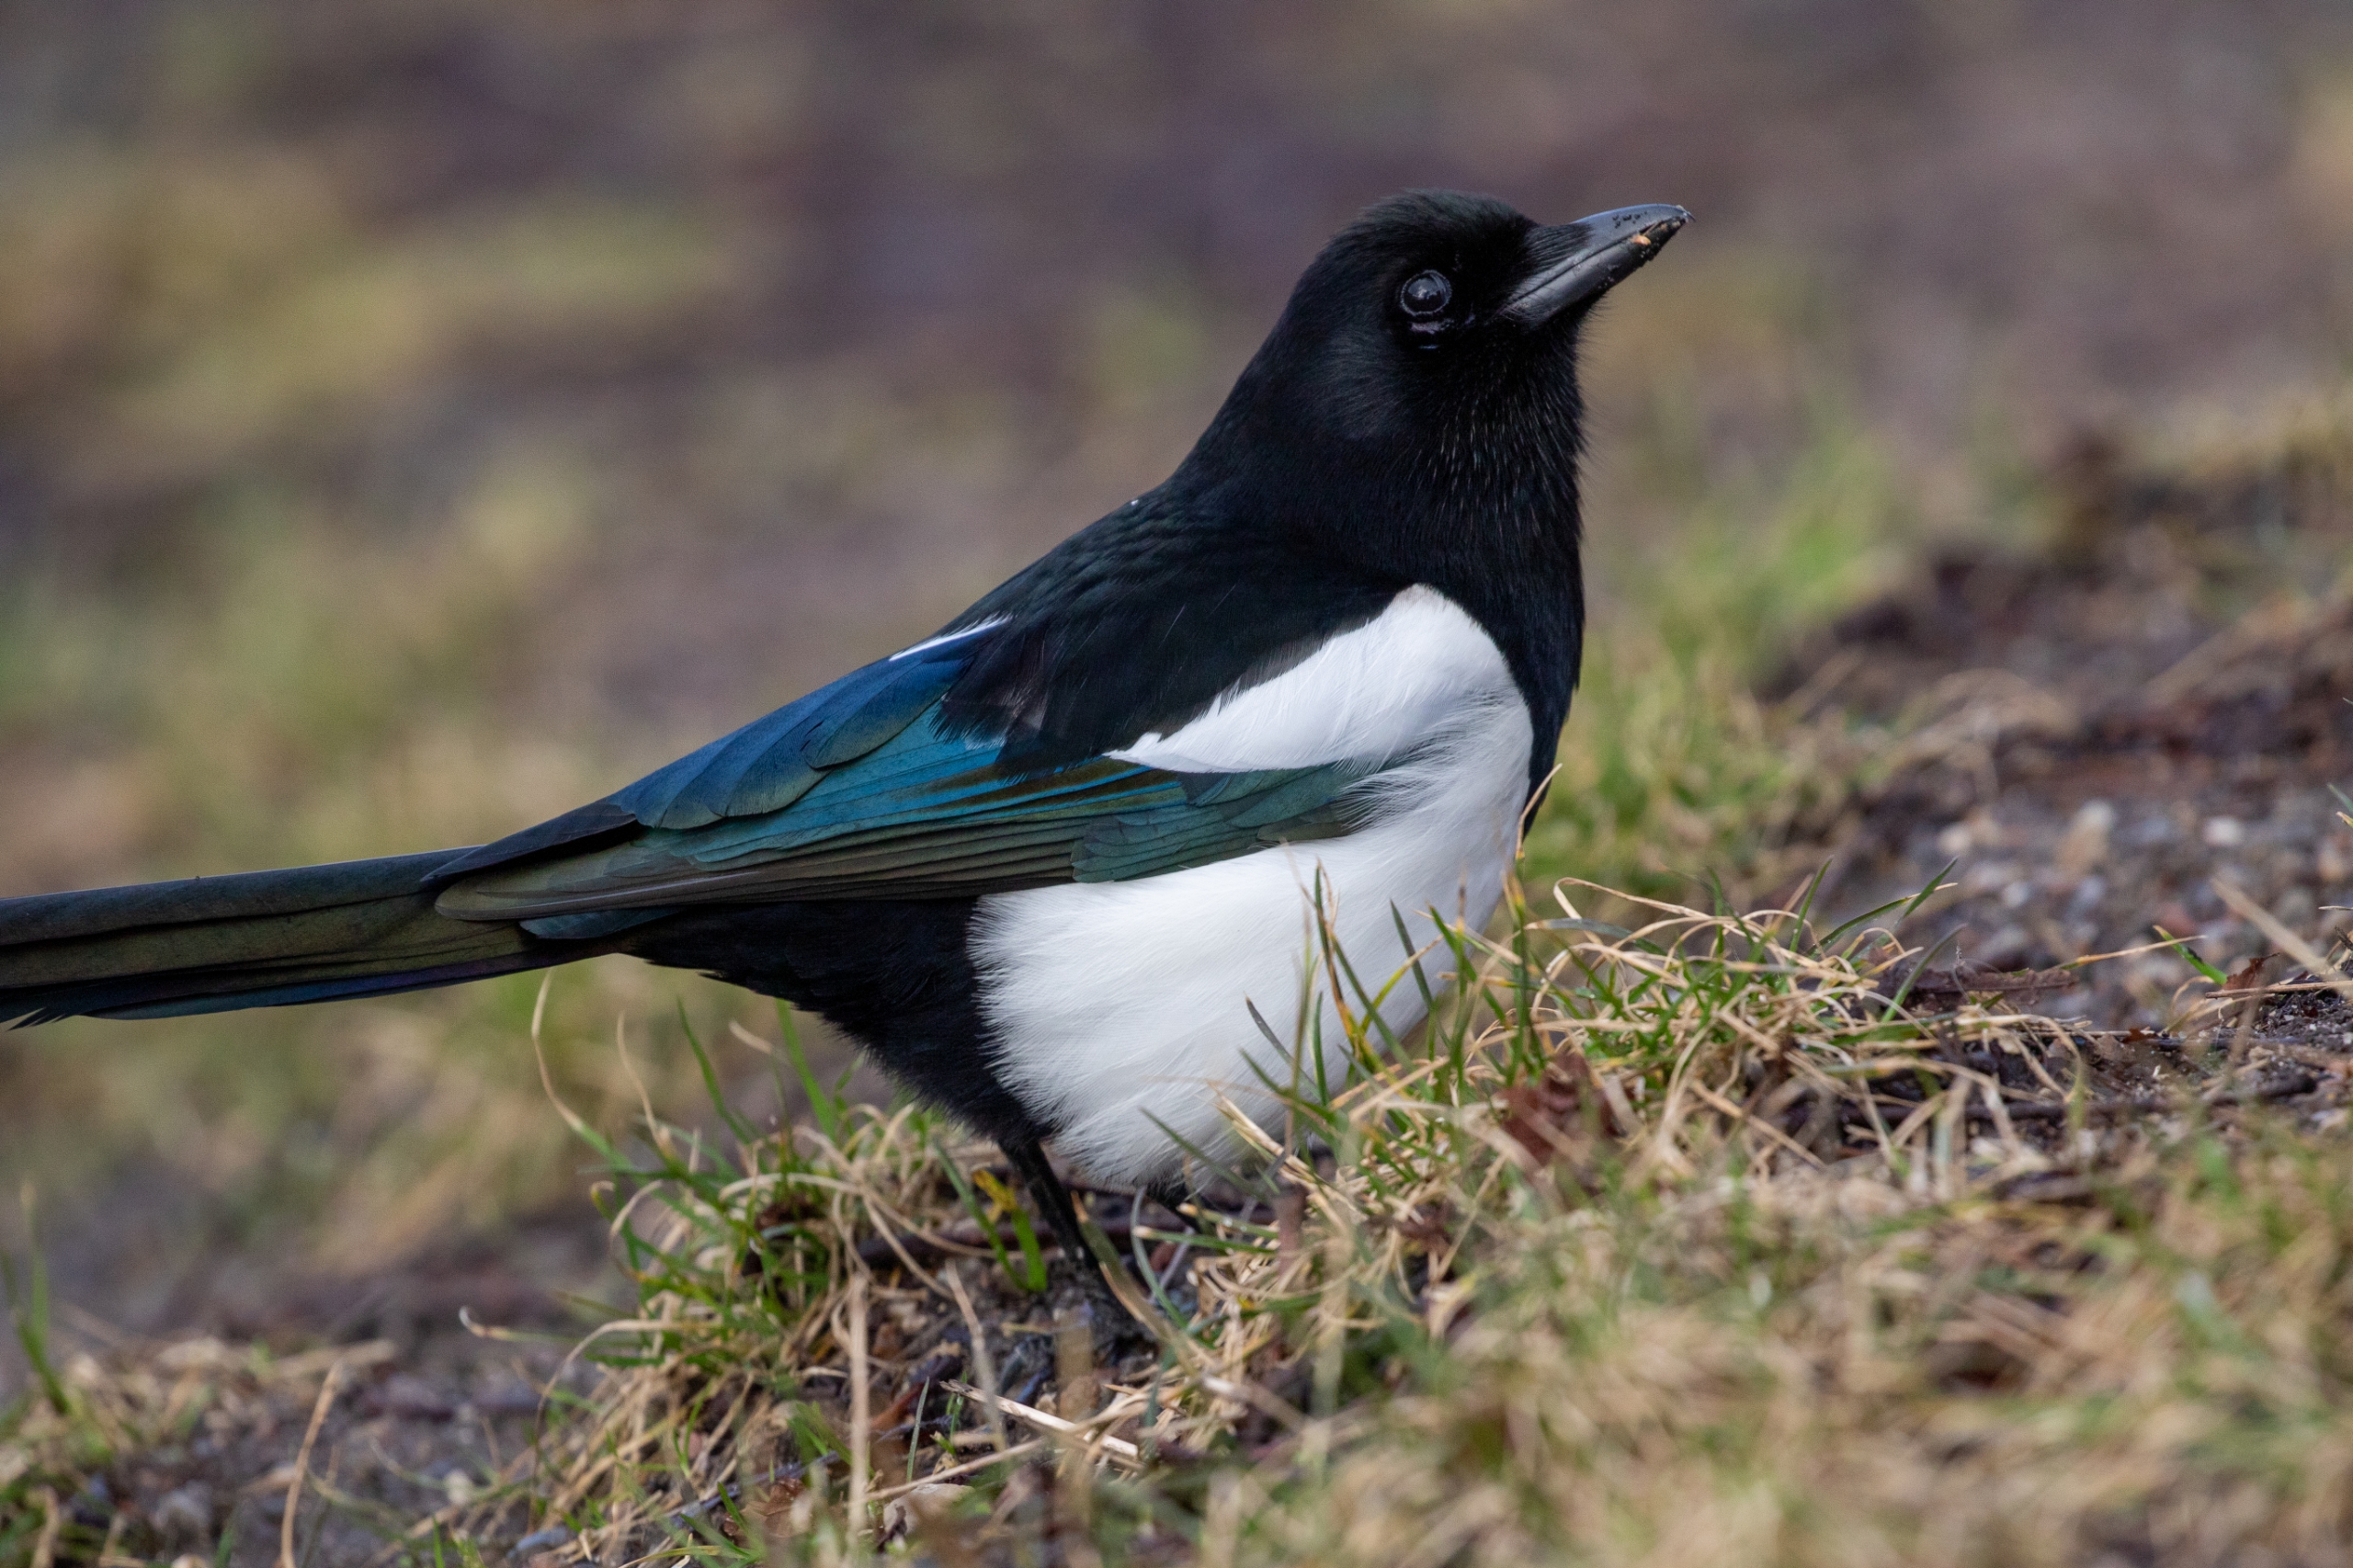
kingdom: Animalia
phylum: Chordata
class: Aves
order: Passeriformes
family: Corvidae
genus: Pica
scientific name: Pica pica
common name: Husskade
